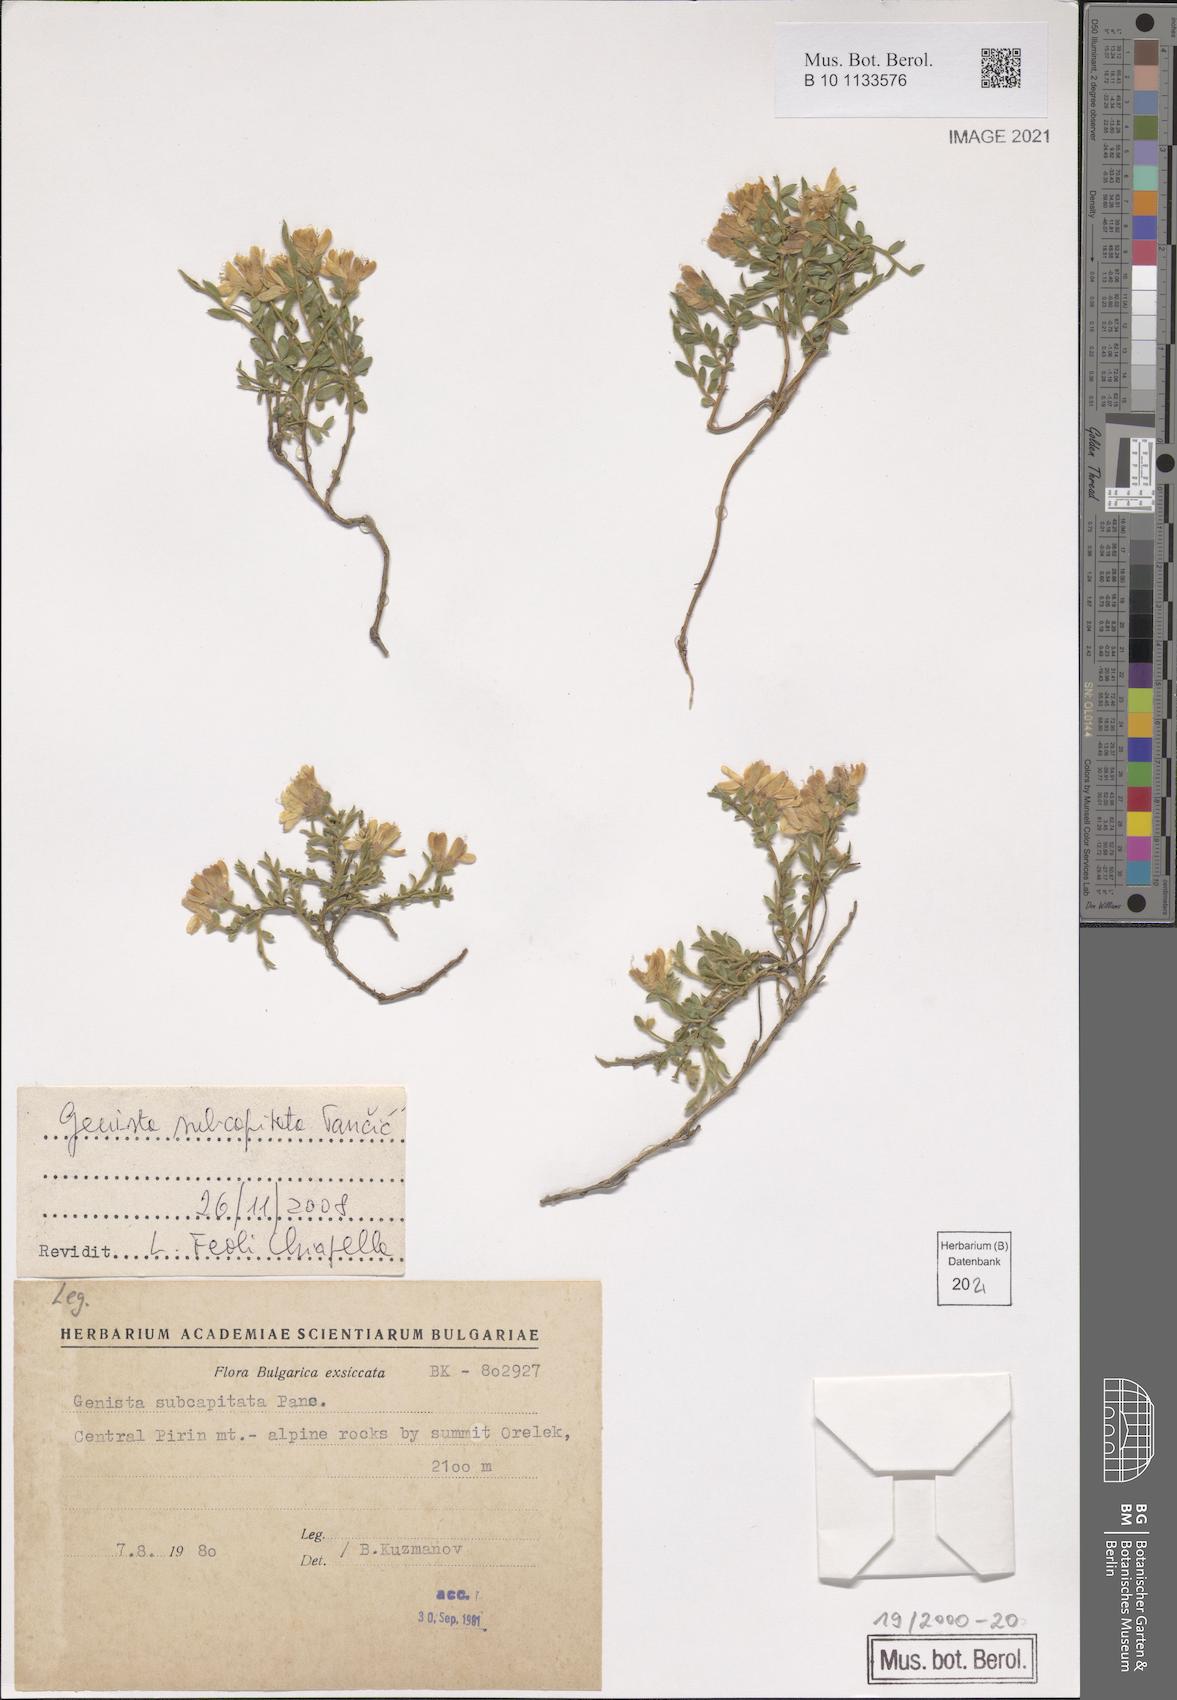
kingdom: Plantae
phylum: Tracheophyta
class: Magnoliopsida
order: Fabales
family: Fabaceae
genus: Genista
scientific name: Genista subcapitata
